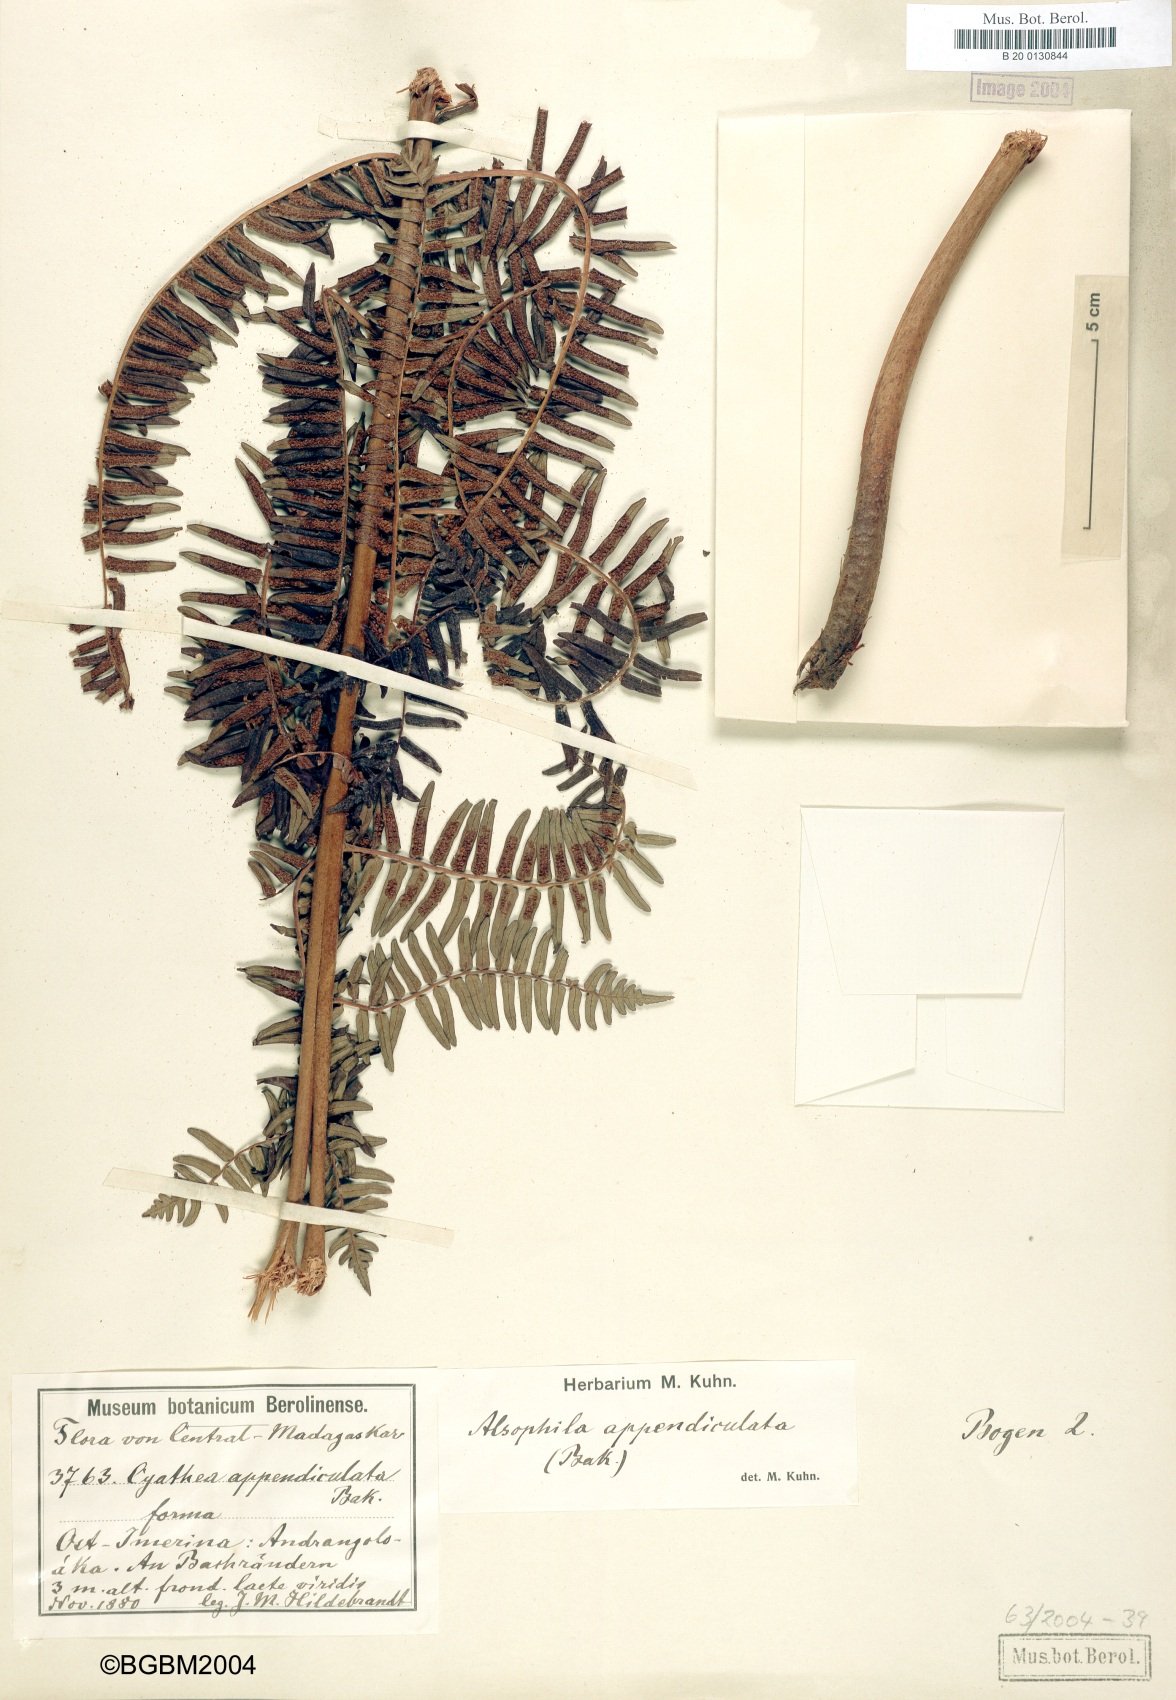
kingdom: Plantae
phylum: Tracheophyta
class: Polypodiopsida
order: Cyatheales
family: Cyatheaceae
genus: Alsophila
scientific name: Alsophila appendiculata
